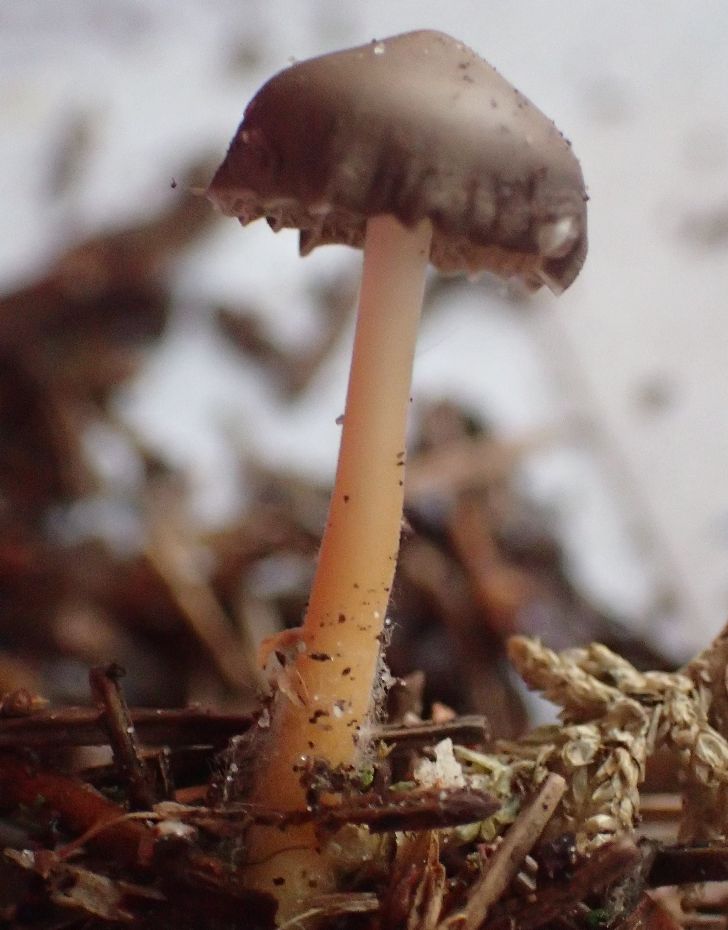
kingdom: Fungi
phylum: Basidiomycota
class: Agaricomycetes
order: Agaricales
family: Physalacriaceae
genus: Strobilurus
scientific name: Strobilurus esculentus
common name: gran-koglehat
